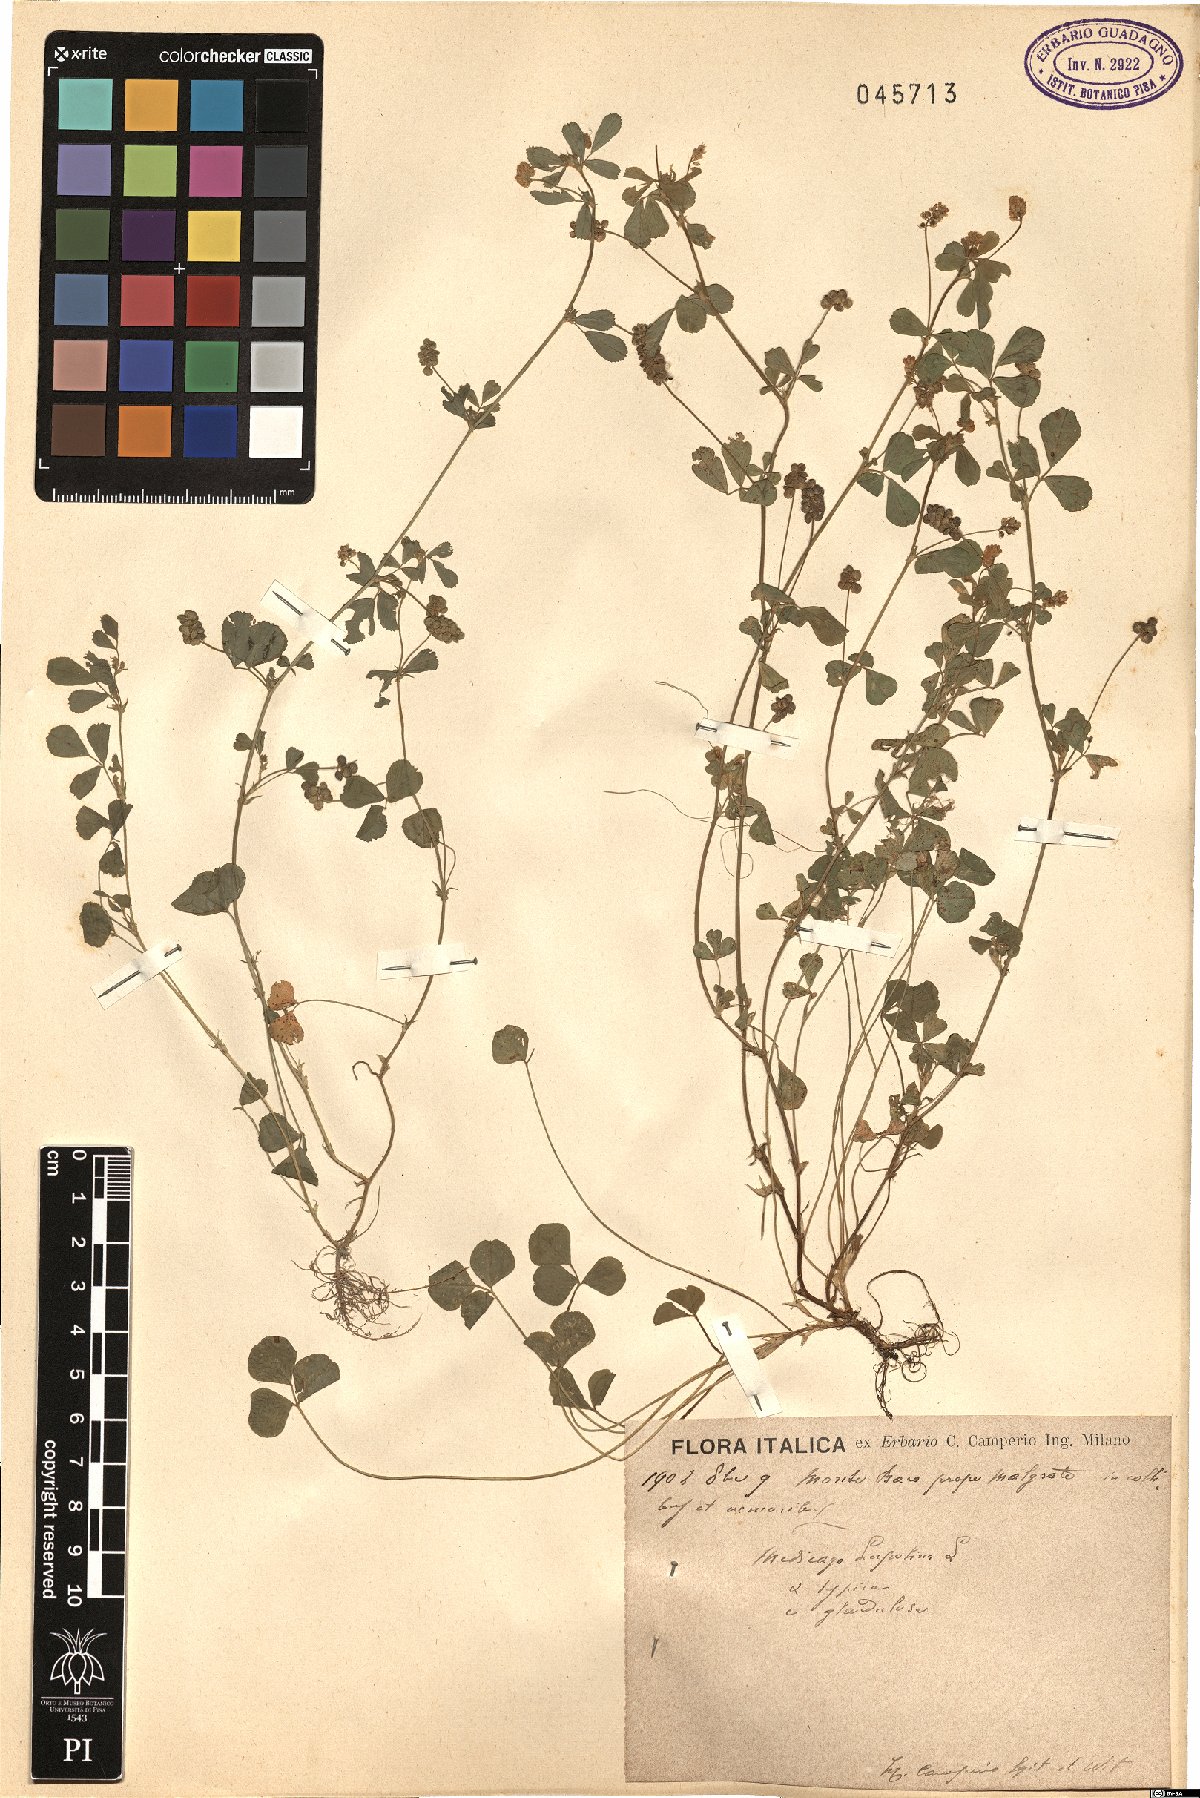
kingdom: Plantae
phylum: Tracheophyta
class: Magnoliopsida
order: Fabales
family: Fabaceae
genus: Medicago
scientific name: Medicago lupulina
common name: Black medick
